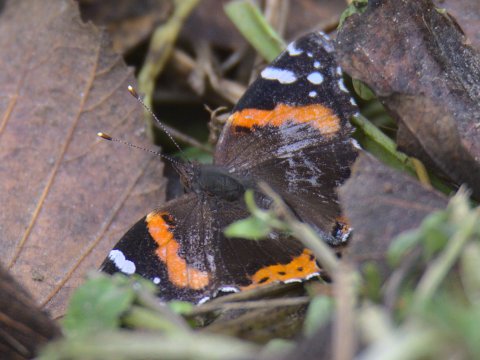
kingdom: Animalia
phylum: Arthropoda
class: Insecta
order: Lepidoptera
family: Nymphalidae
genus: Vanessa
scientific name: Vanessa atalanta
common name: Red Admiral
